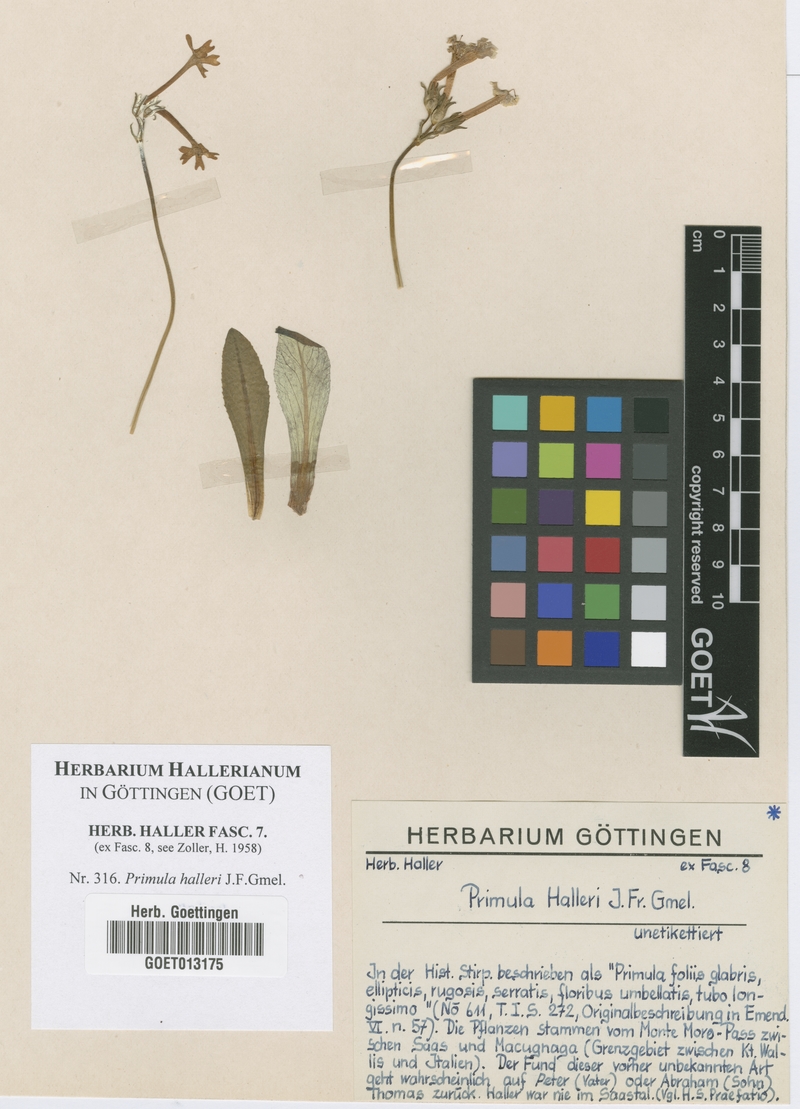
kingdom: Plantae
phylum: Tracheophyta
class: Magnoliopsida
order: Ericales
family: Primulaceae
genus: Primula
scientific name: Primula halleri
